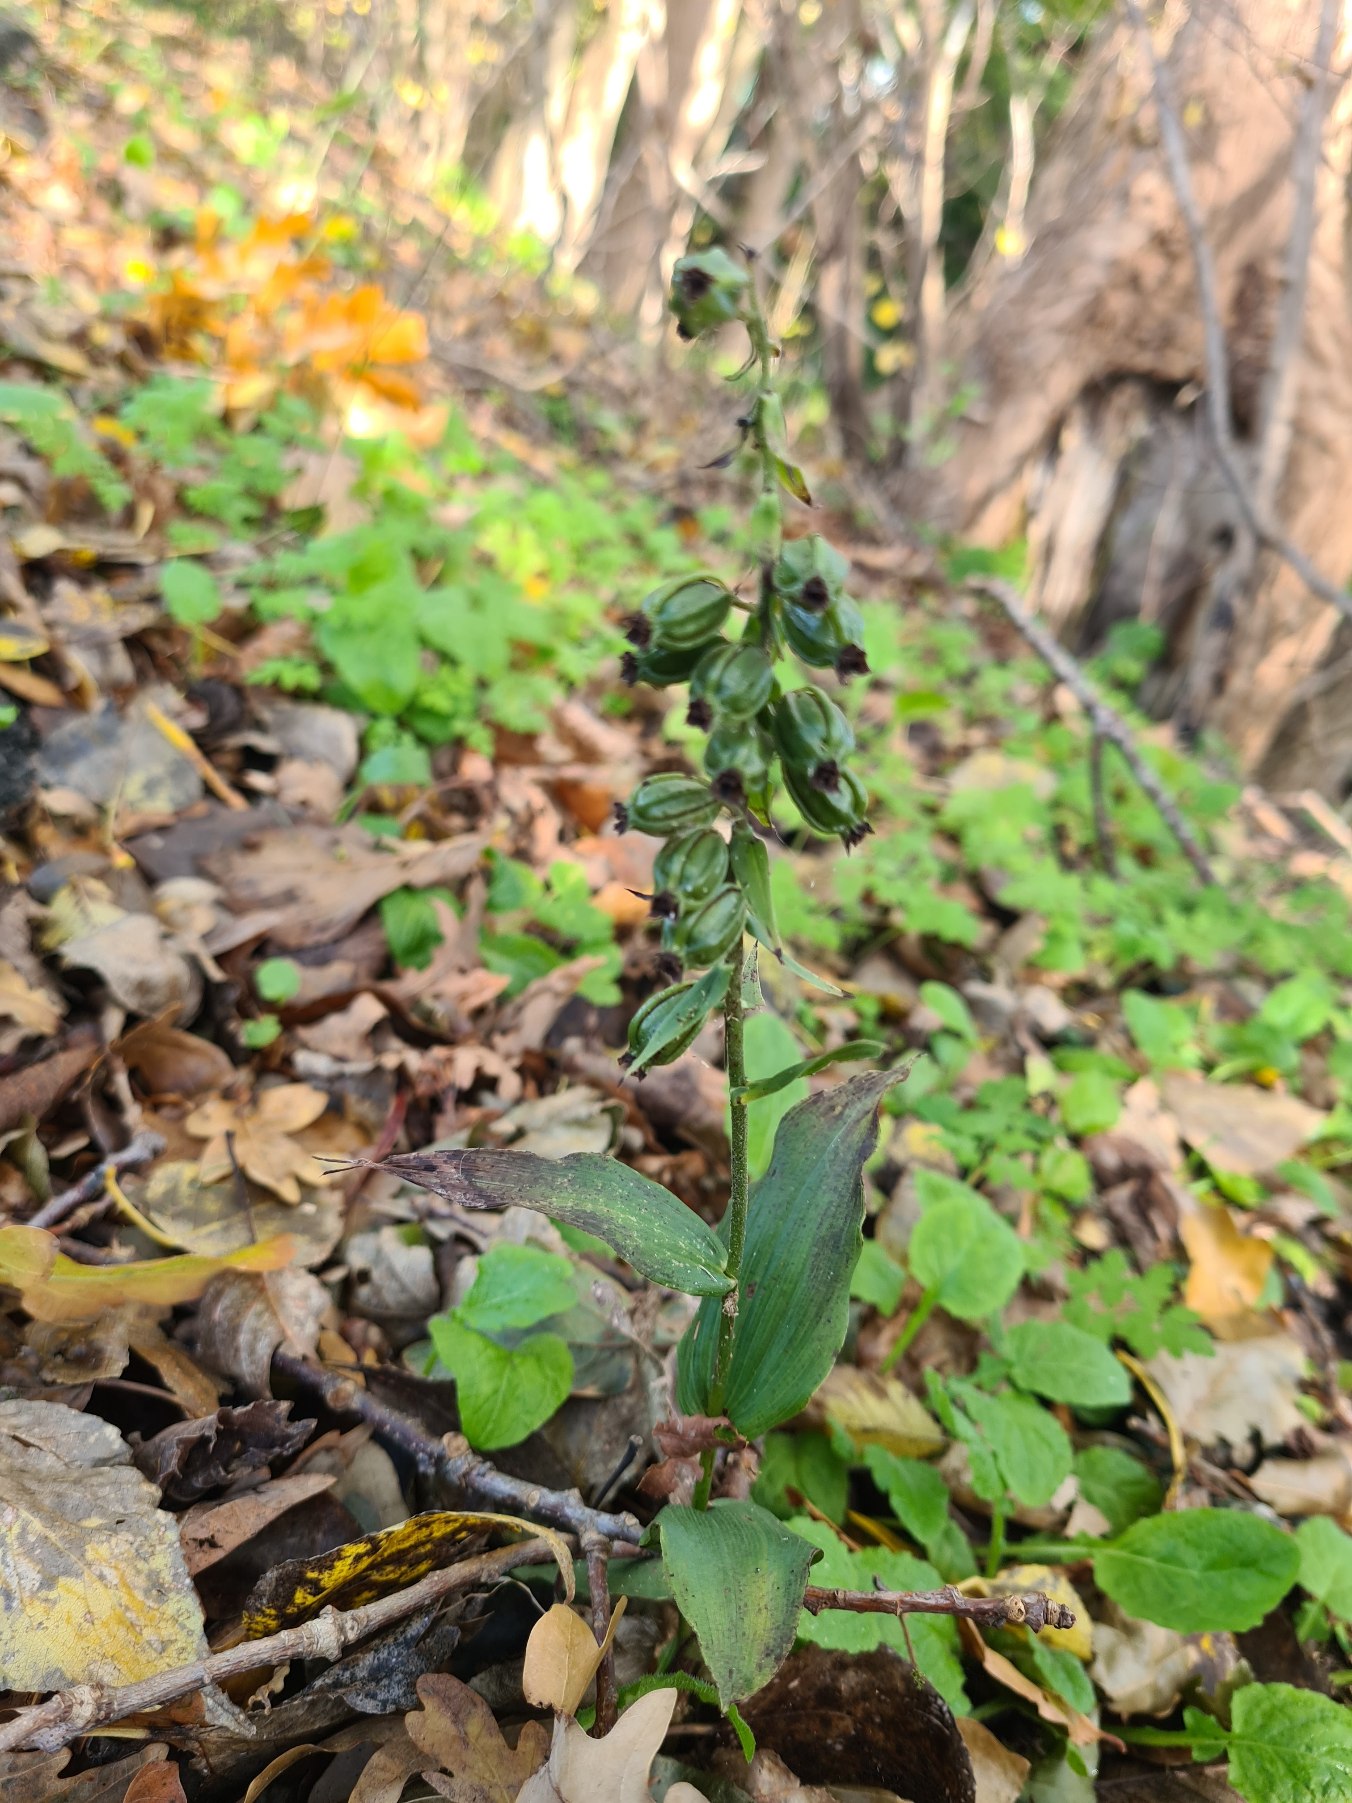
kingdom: Plantae
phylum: Tracheophyta
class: Liliopsida
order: Asparagales
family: Orchidaceae
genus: Epipactis
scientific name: Epipactis helleborine
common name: Skov-hullæbe
